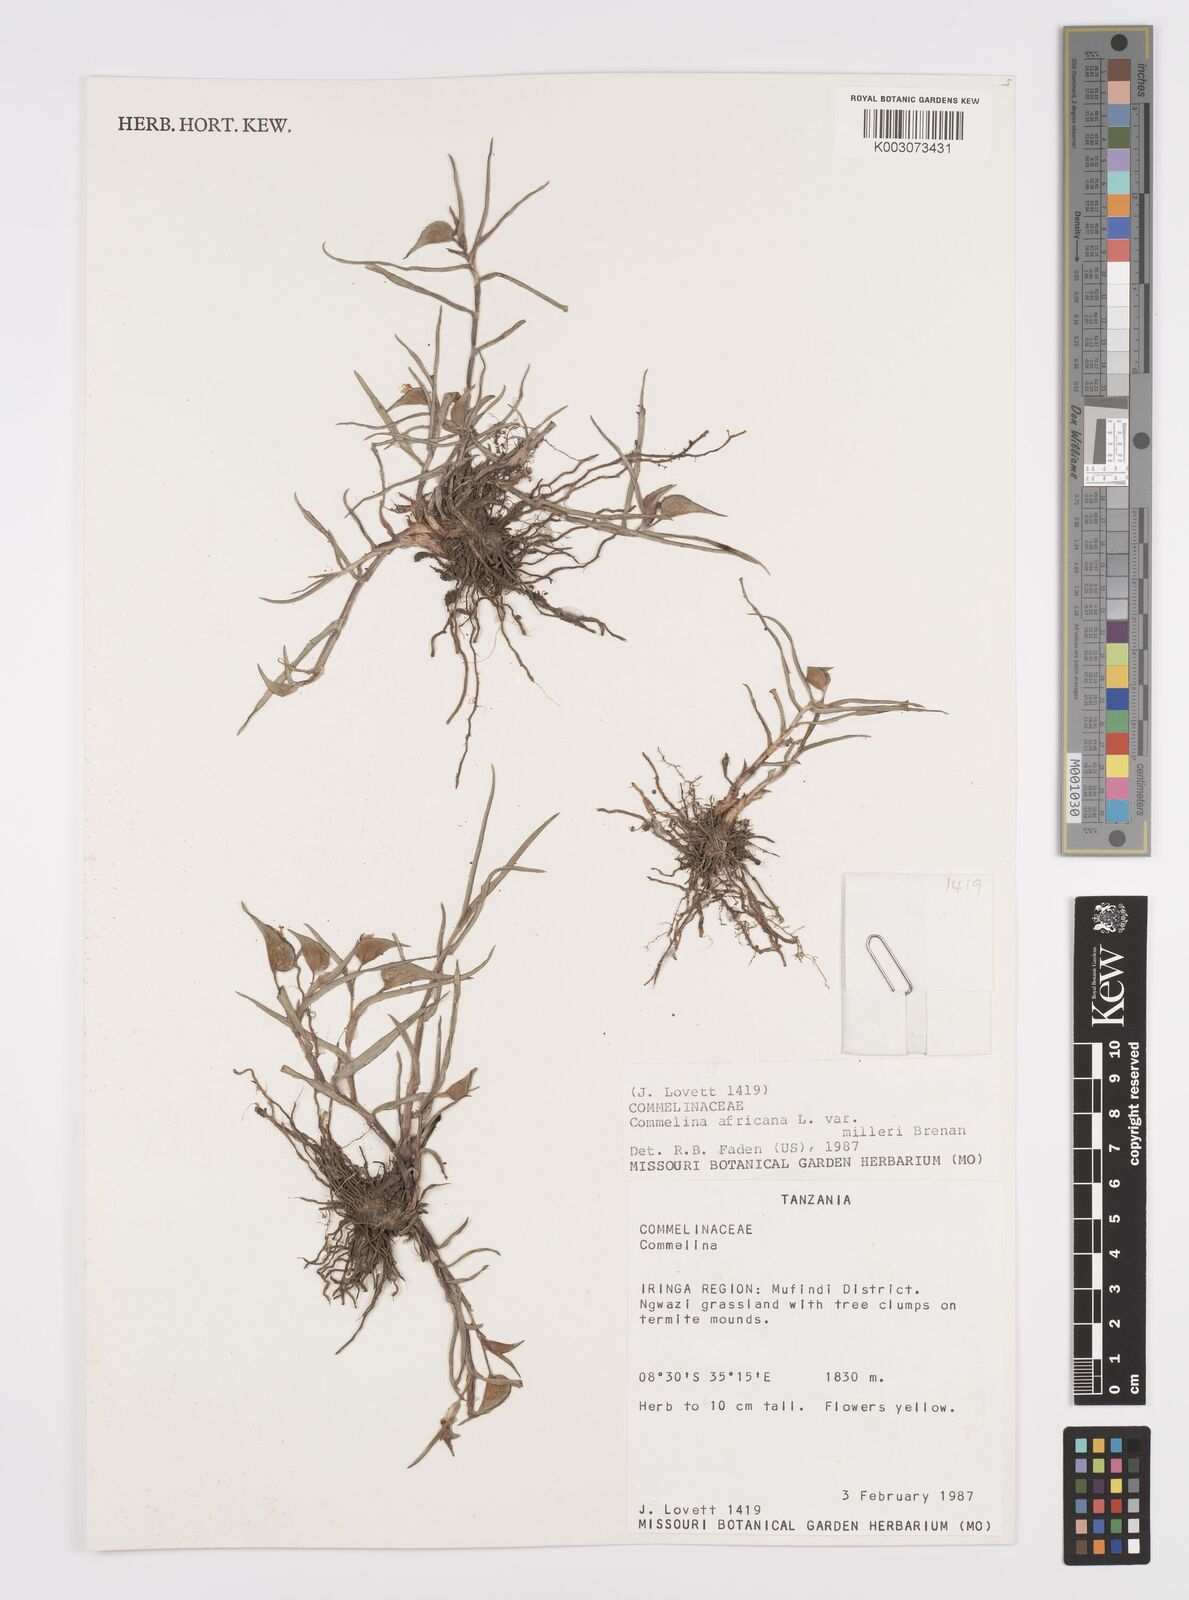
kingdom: Plantae
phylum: Tracheophyta
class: Liliopsida
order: Commelinales
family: Commelinaceae
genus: Commelina
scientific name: Commelina africana
